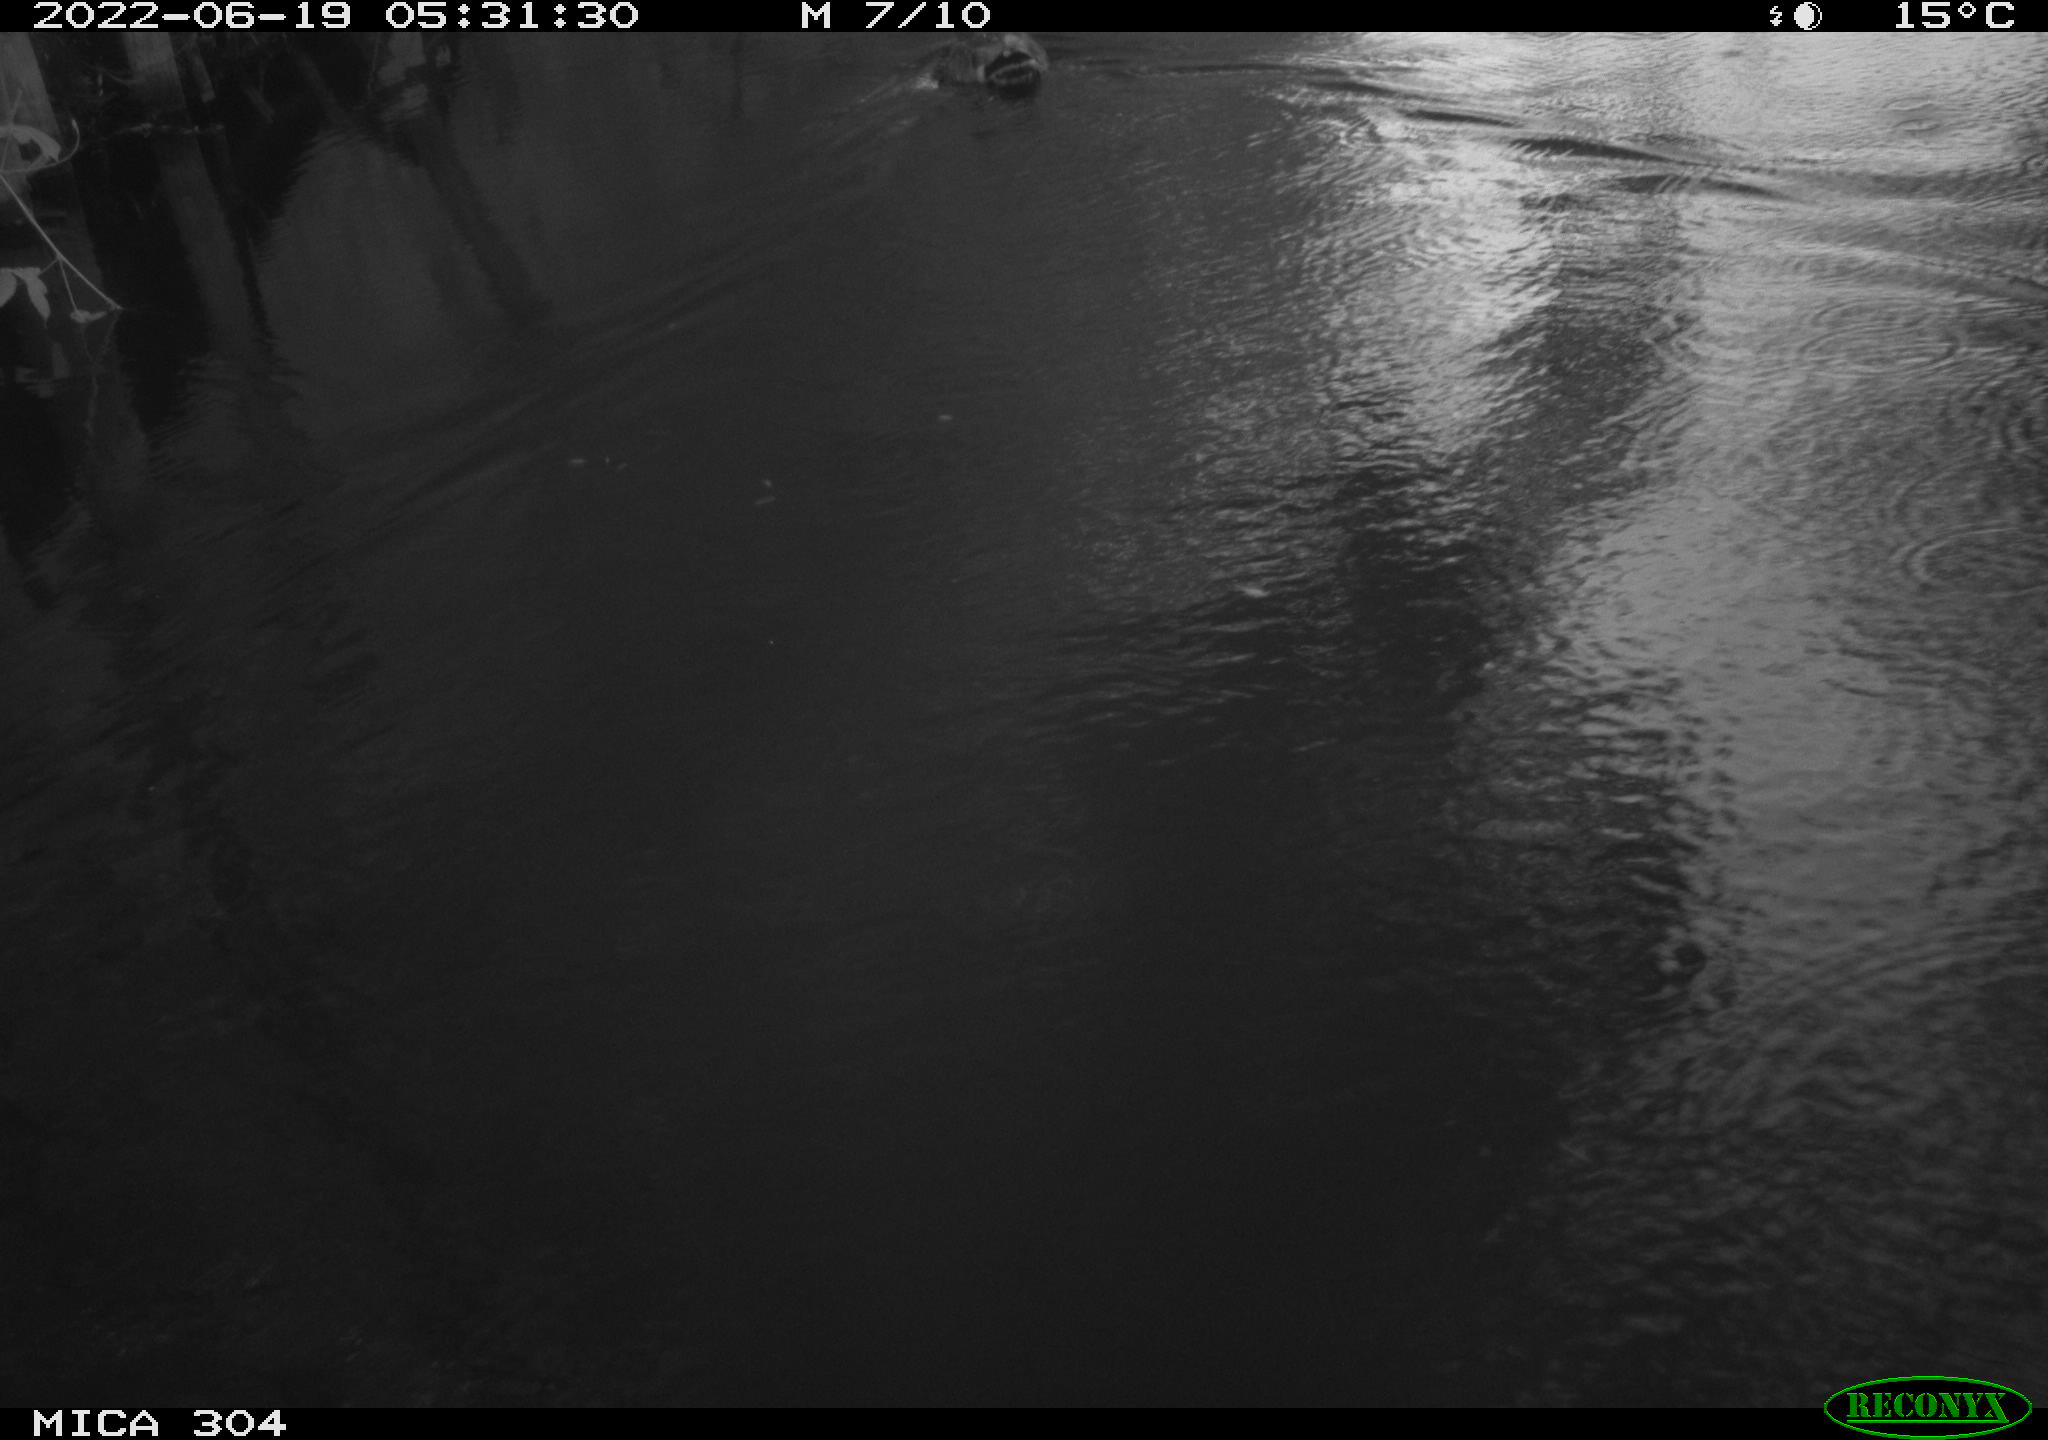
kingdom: Animalia
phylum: Chordata
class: Aves
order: Anseriformes
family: Anatidae
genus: Mareca
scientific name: Mareca strepera
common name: Gadwall
